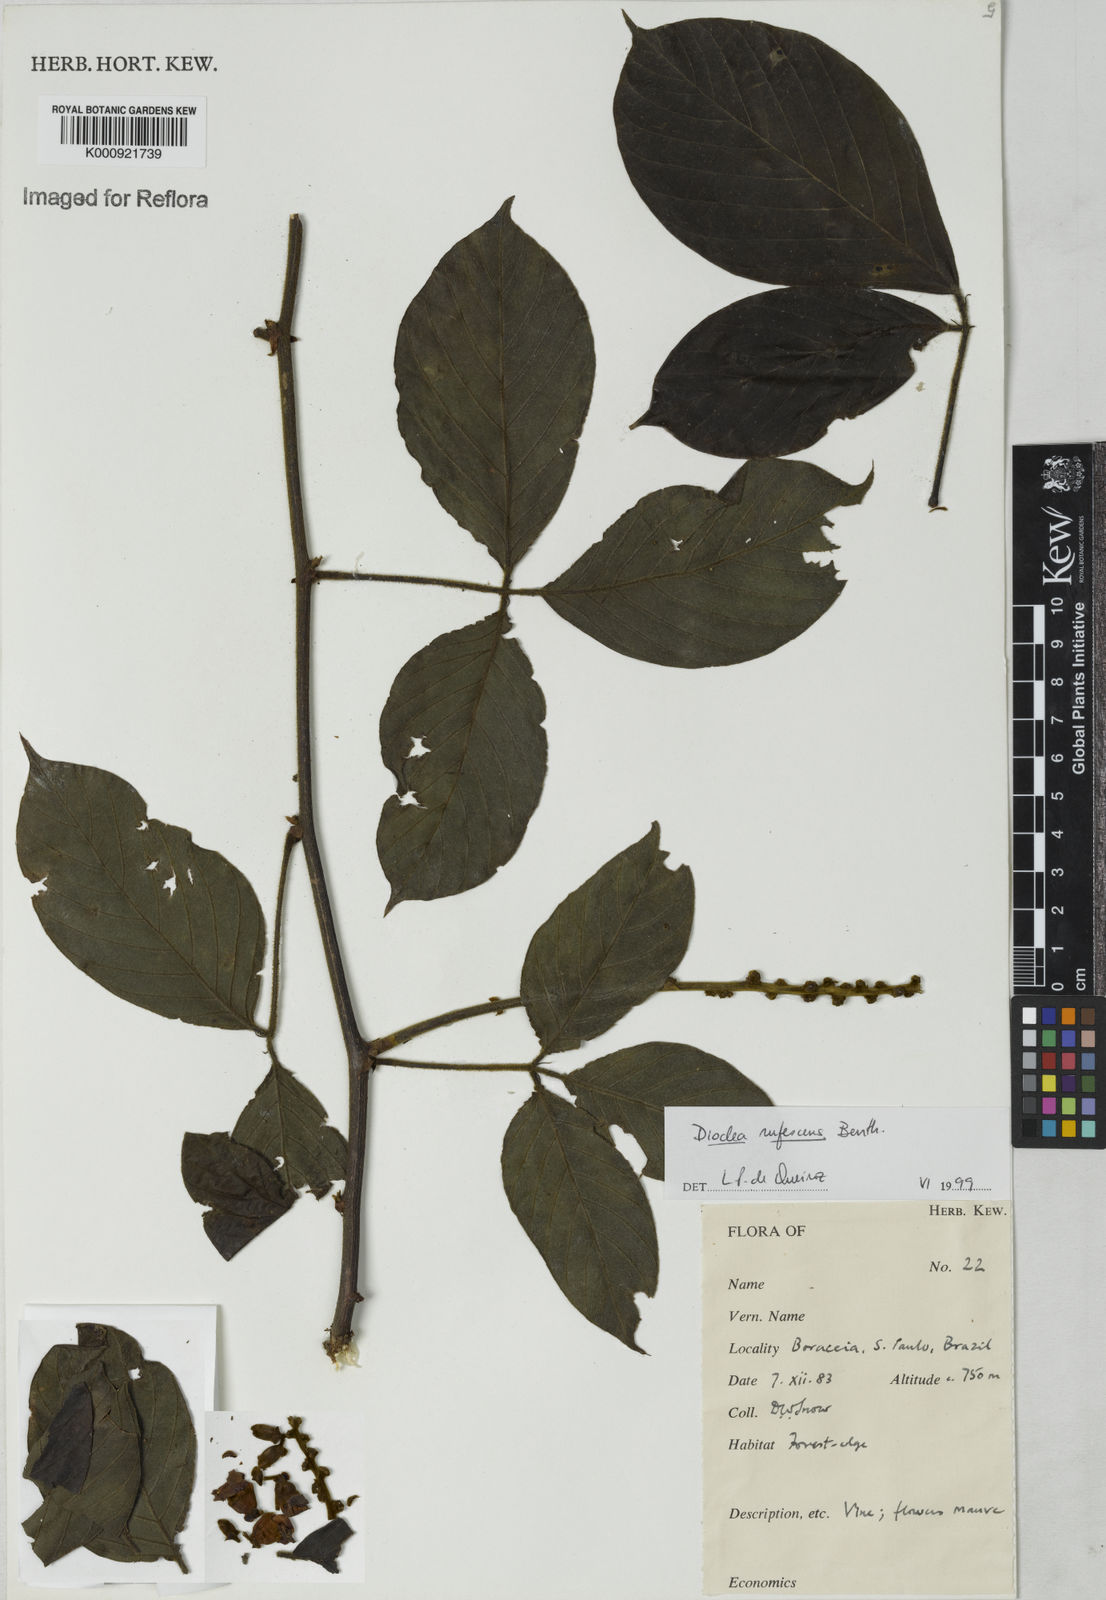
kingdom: Plantae
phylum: Tracheophyta
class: Magnoliopsida
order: Fabales
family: Fabaceae
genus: Macropsychanthus
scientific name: Macropsychanthus rufescens
